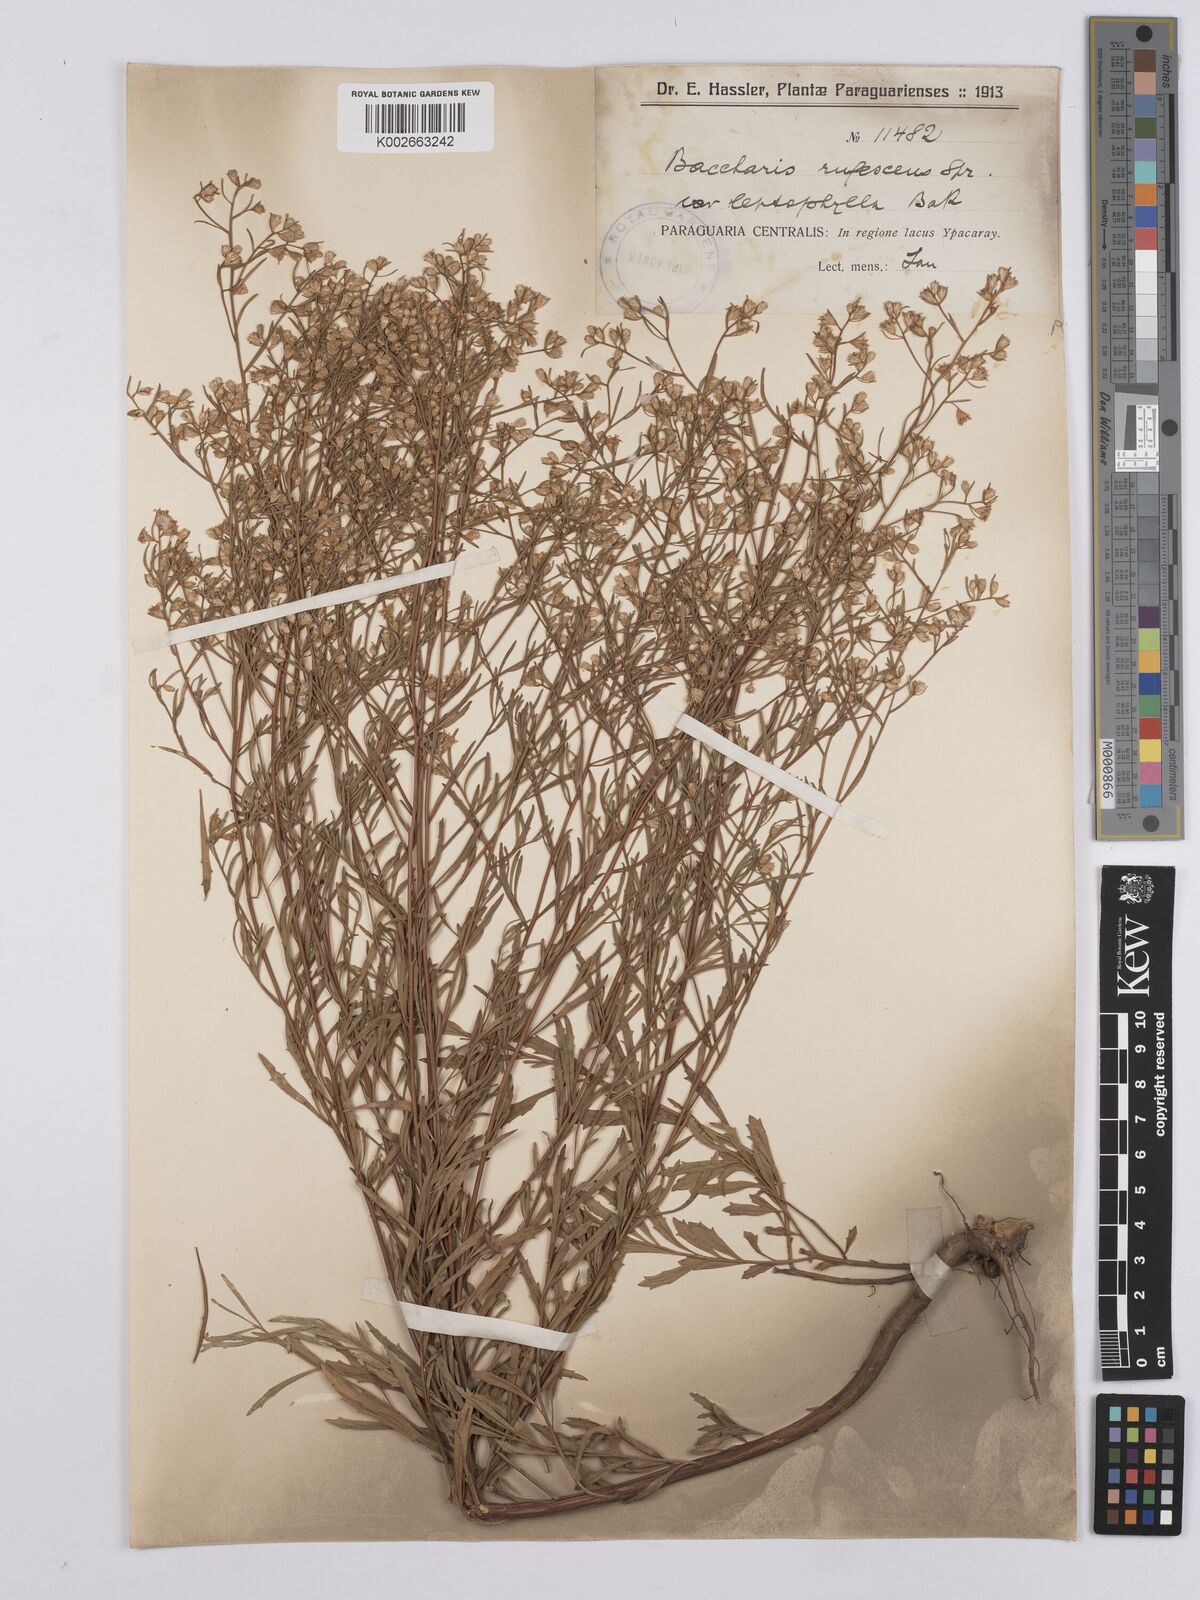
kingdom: Plantae
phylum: Tracheophyta
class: Magnoliopsida
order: Asterales
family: Asteraceae
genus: Baccharis
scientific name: Baccharis leptophylla
